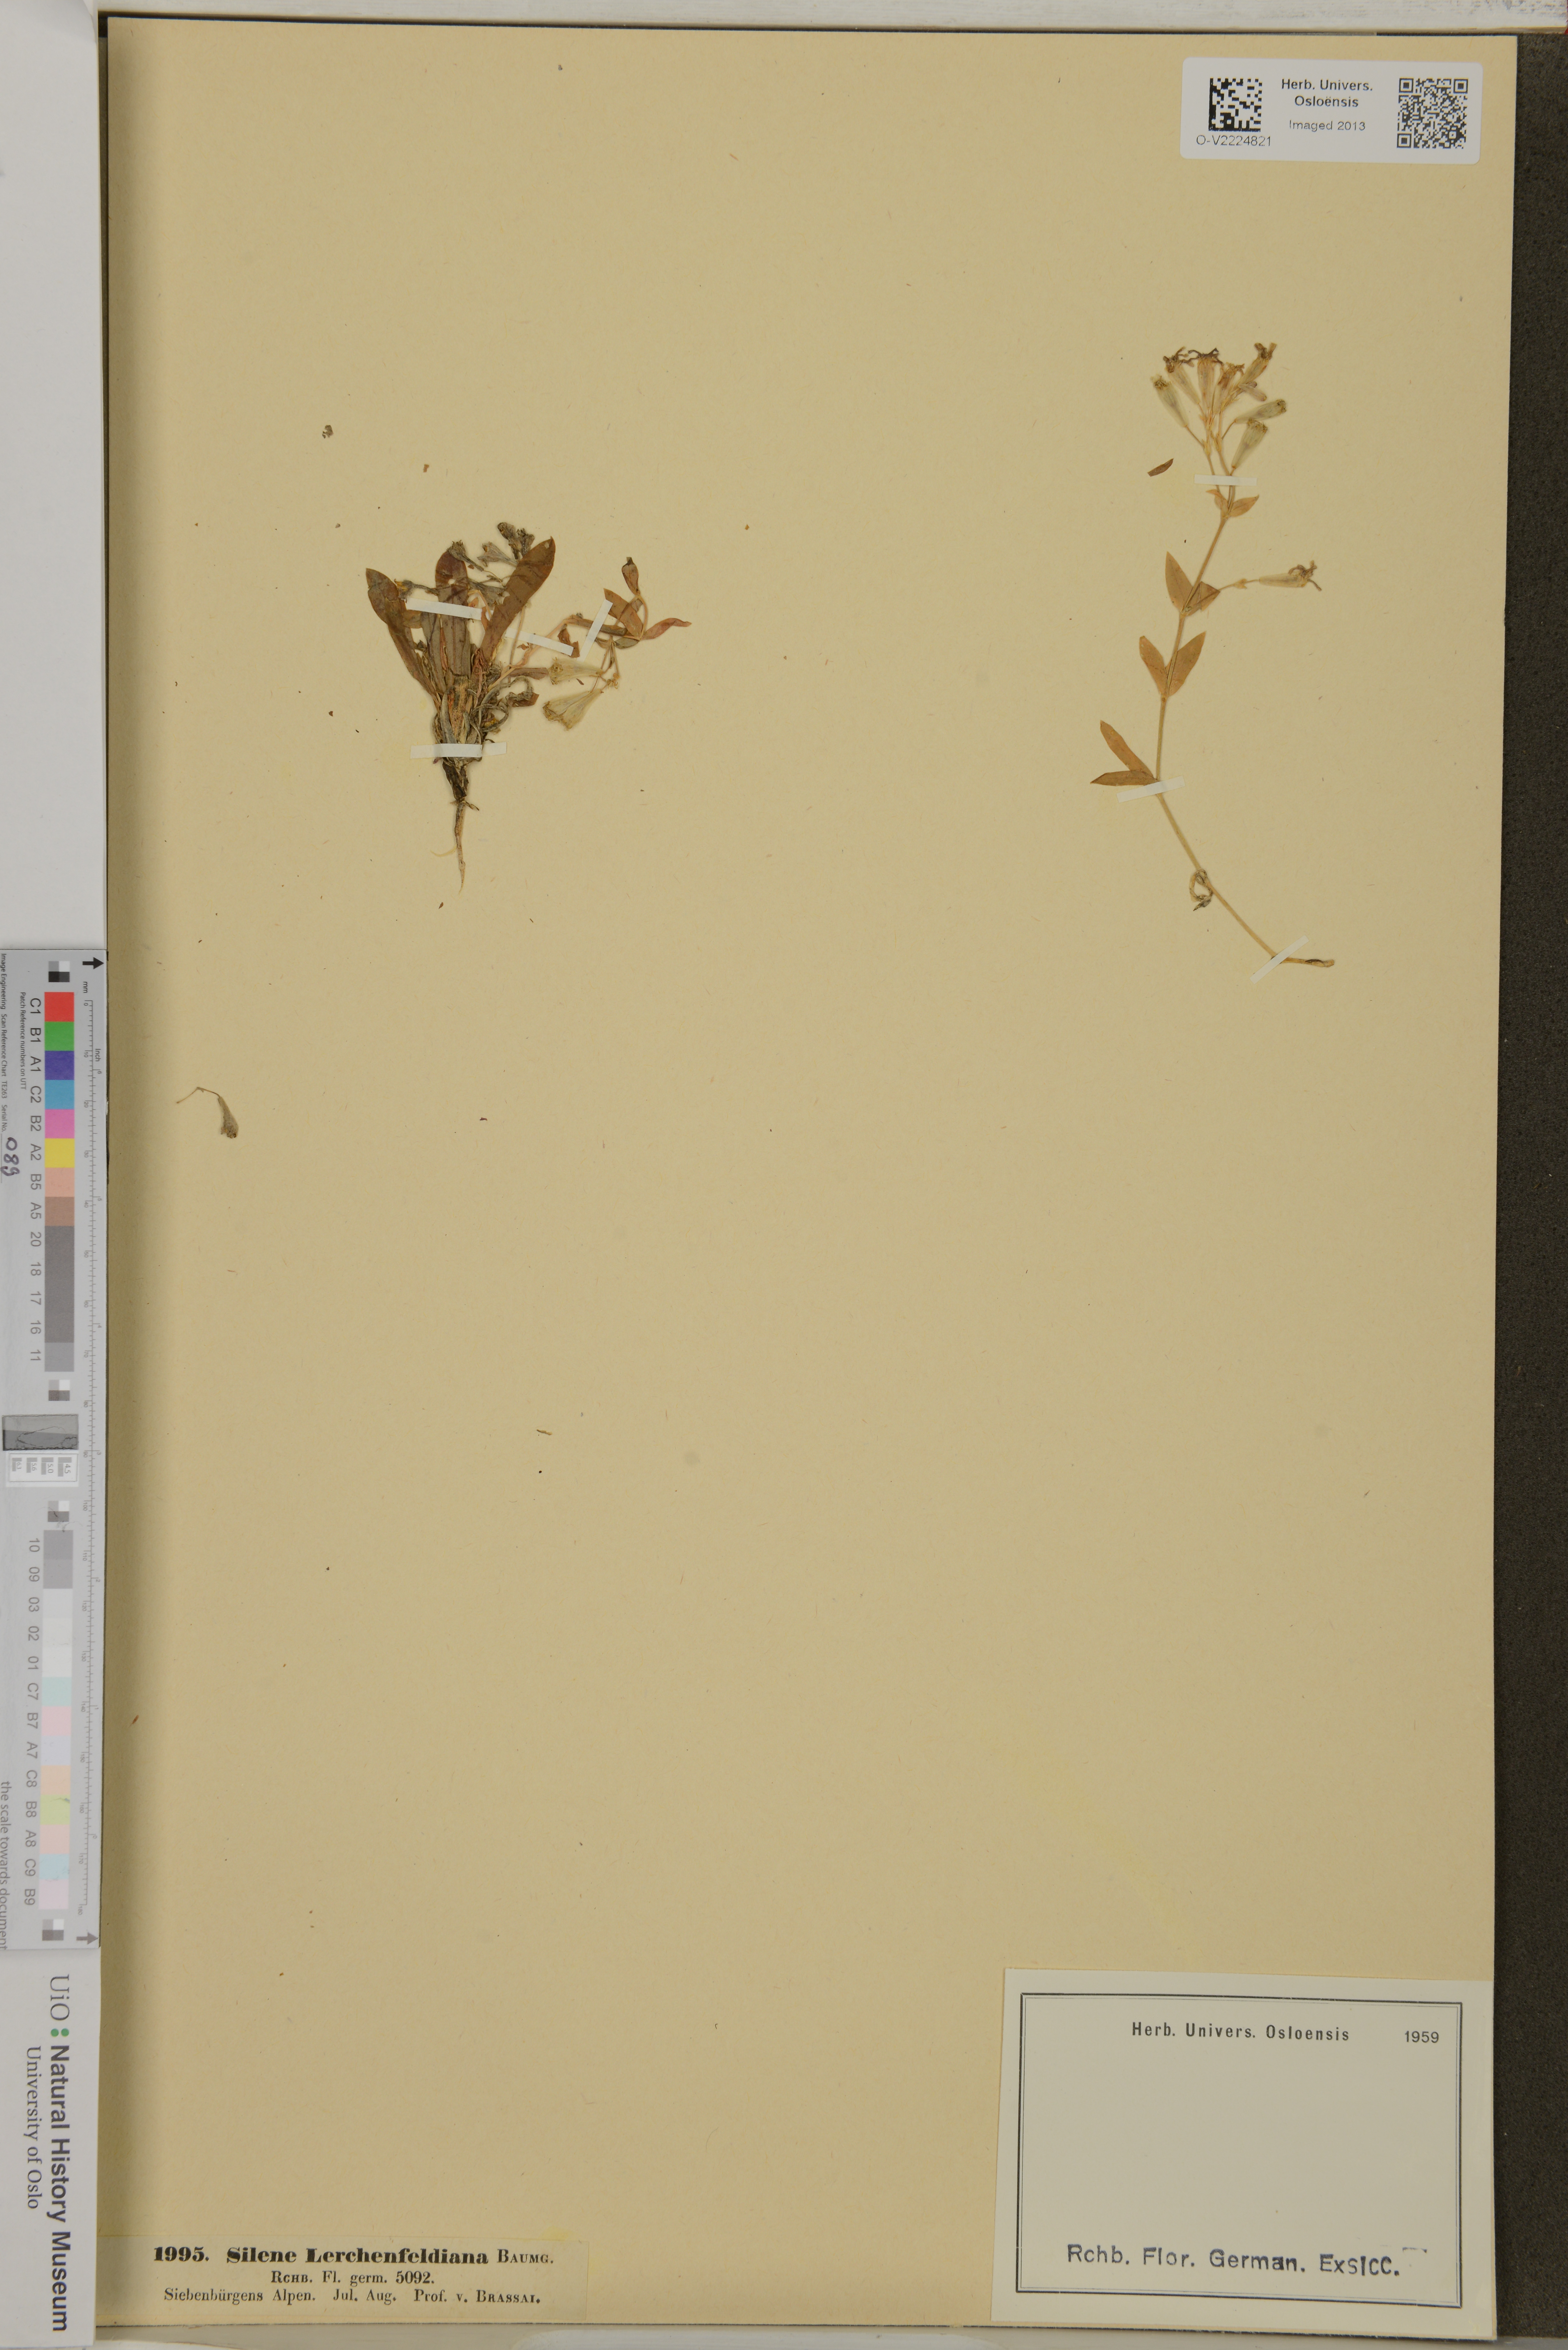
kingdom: Plantae
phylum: Tracheophyta
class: Magnoliopsida
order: Caryophyllales
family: Caryophyllaceae
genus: Atocion
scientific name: Atocion lerchenfeldianum
